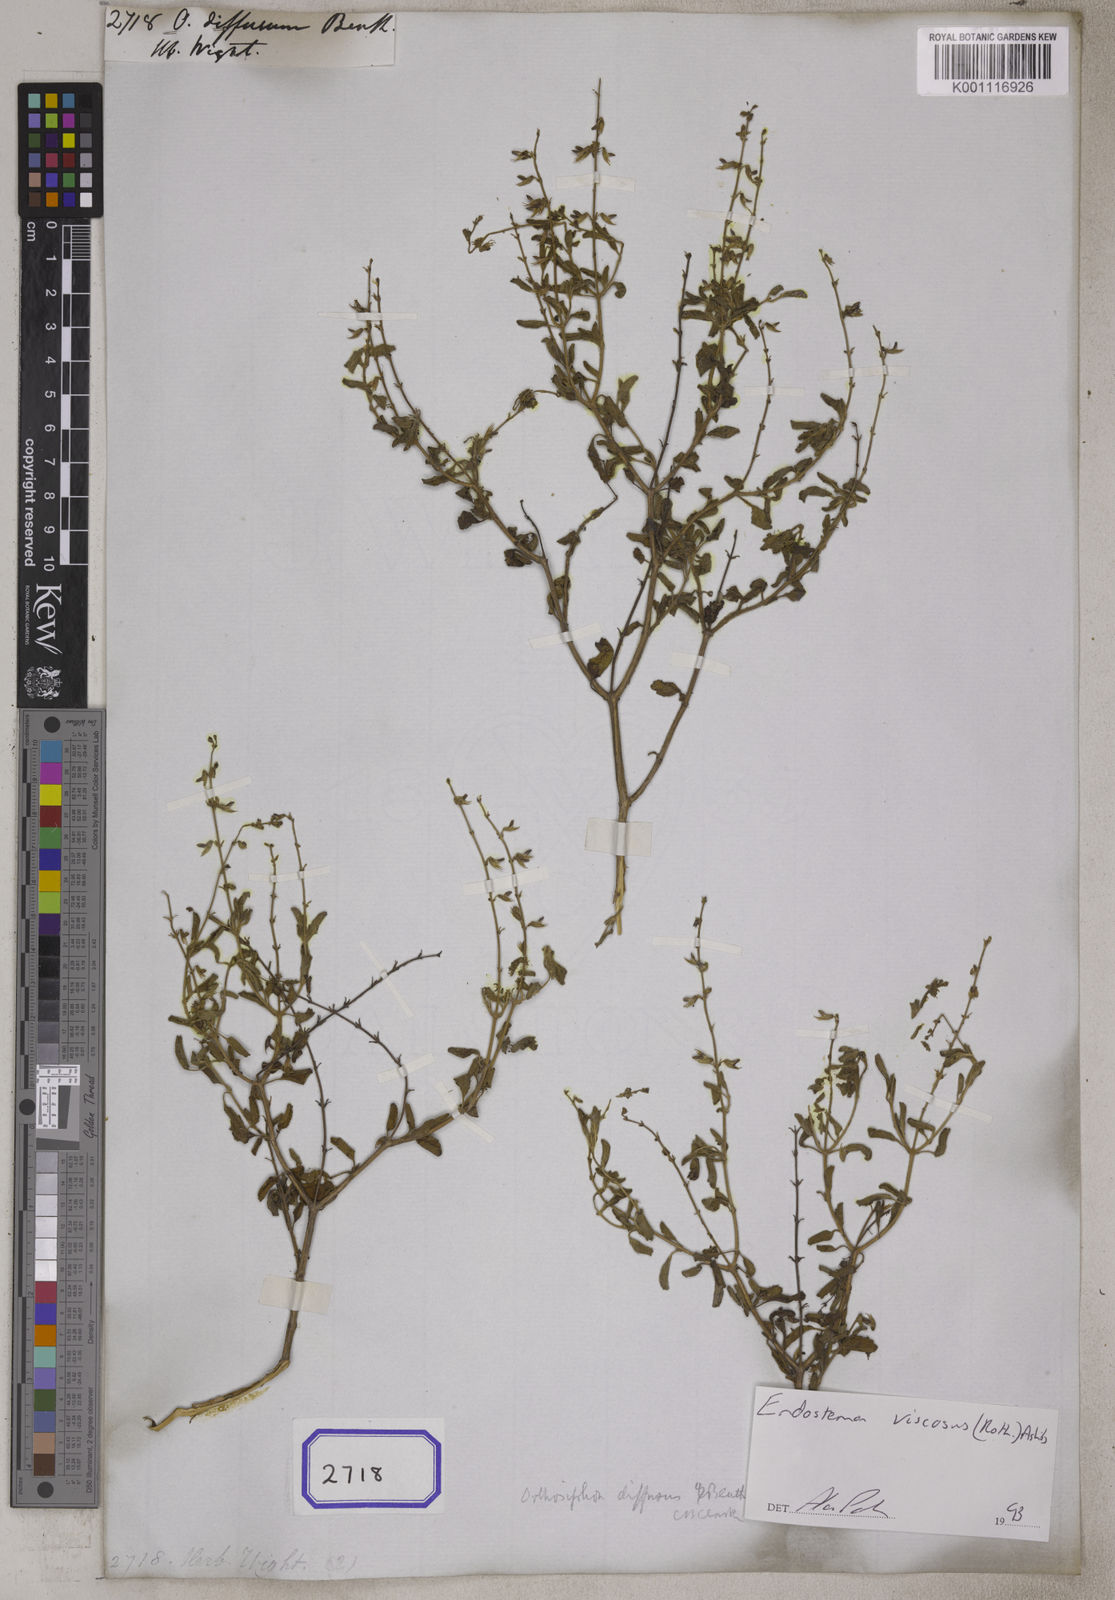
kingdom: Plantae
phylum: Tracheophyta
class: Magnoliopsida
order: Lamiales
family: Lamiaceae
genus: Endostemon
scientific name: Endostemon viscosus
